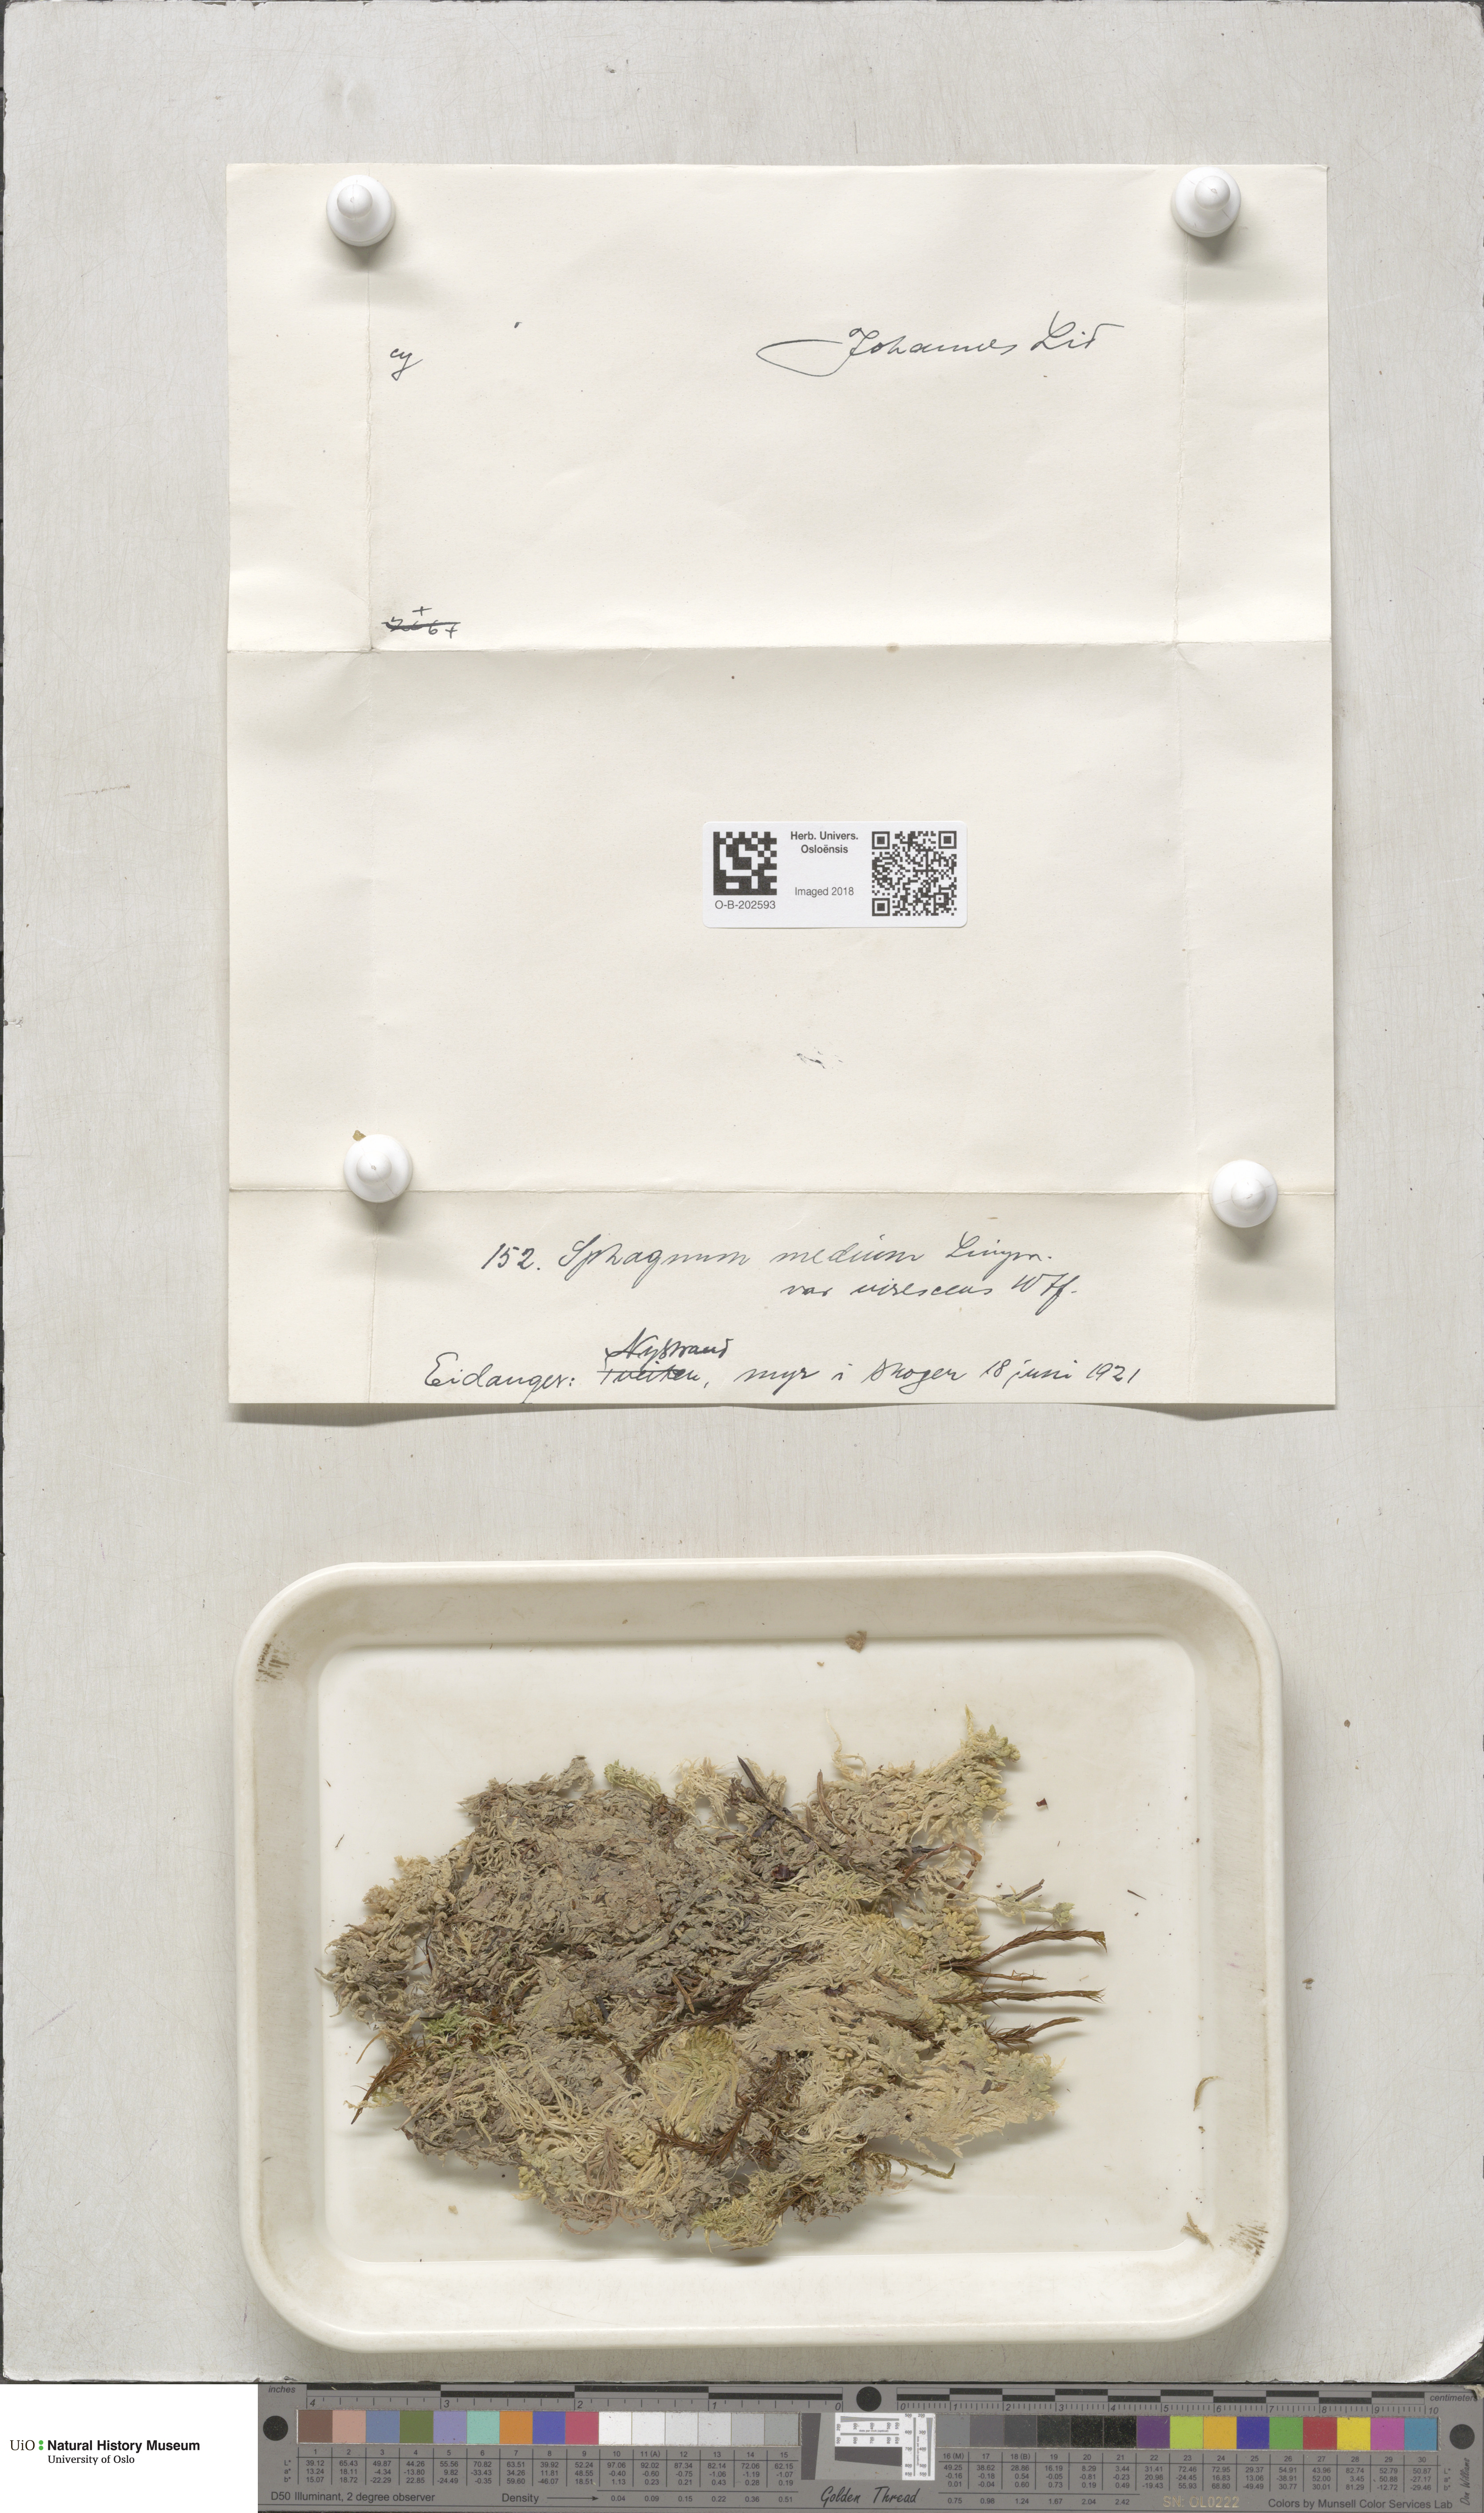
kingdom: Plantae
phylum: Bryophyta
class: Sphagnopsida
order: Sphagnales
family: Sphagnaceae
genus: Sphagnum
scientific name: Sphagnum magellanicum
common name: Magellan's peat moss
